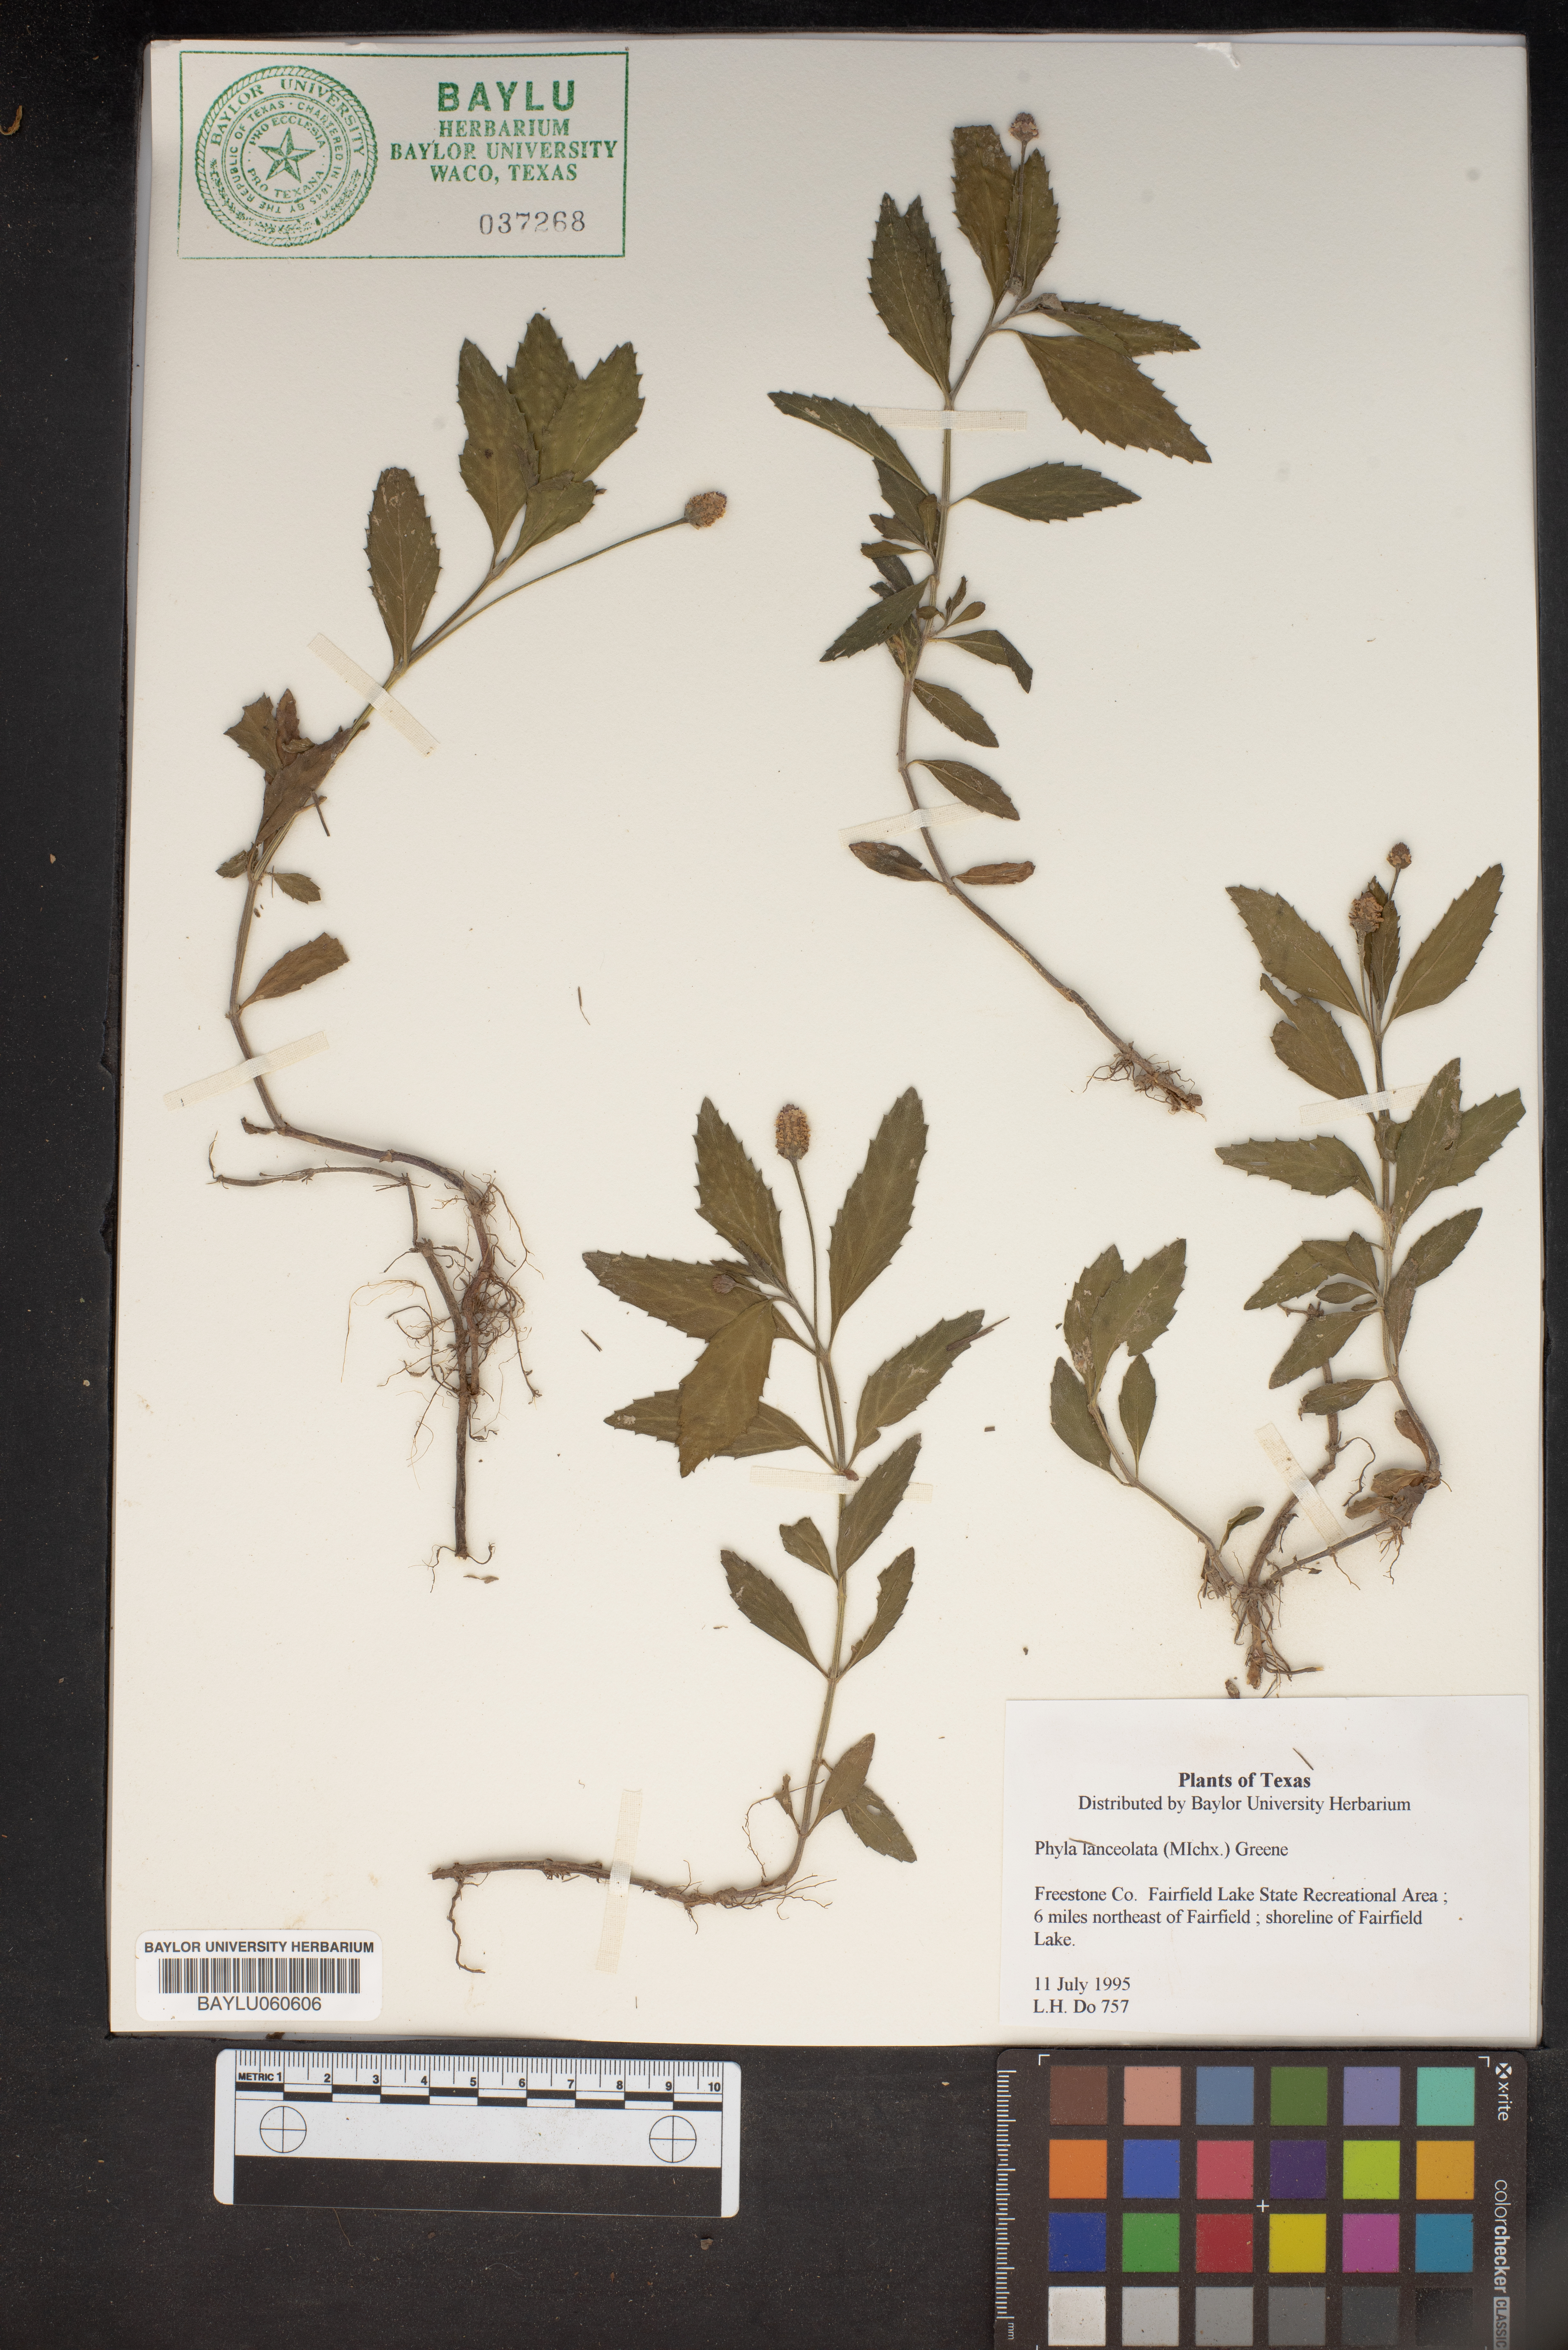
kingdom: Plantae
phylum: Tracheophyta
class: Magnoliopsida
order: Lamiales
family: Verbenaceae
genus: Phyla
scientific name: Phyla lanceolata
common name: Northern fogfruit
